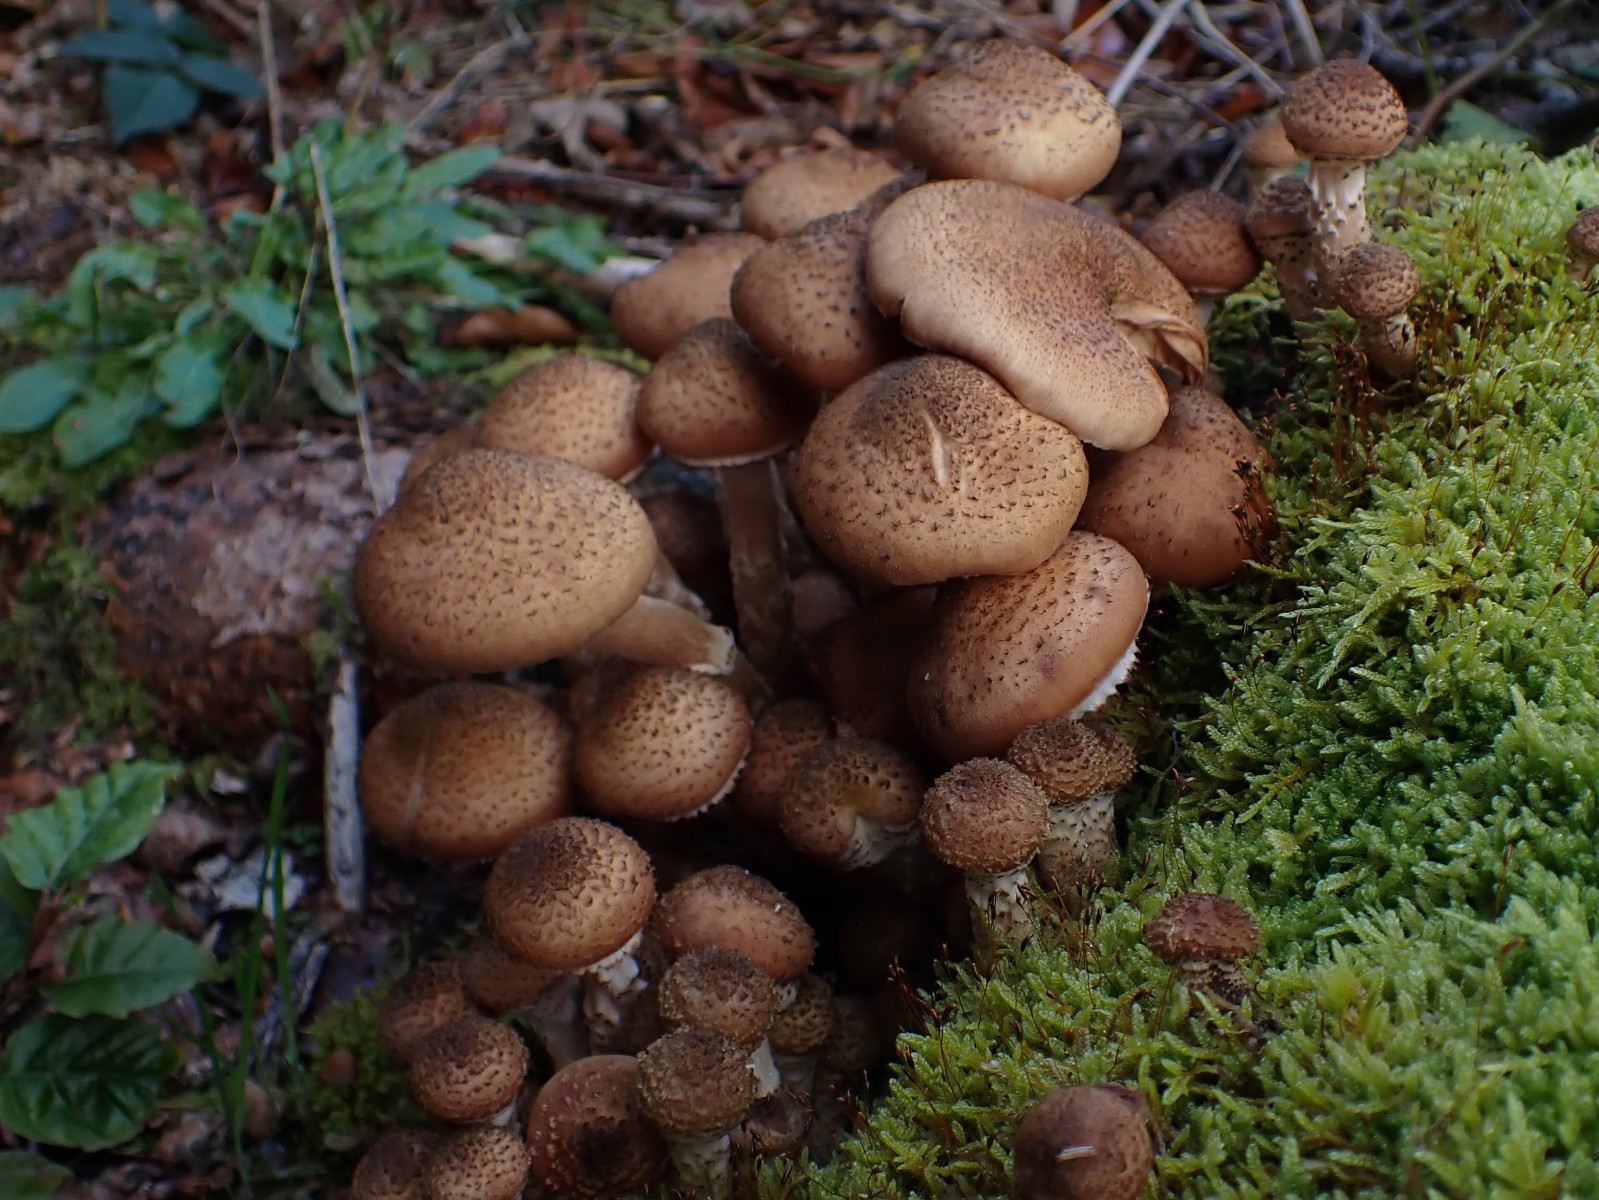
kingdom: Fungi
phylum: Basidiomycota
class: Agaricomycetes
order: Agaricales
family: Physalacriaceae
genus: Armillaria
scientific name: Armillaria ostoyae
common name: mørk honningsvamp
